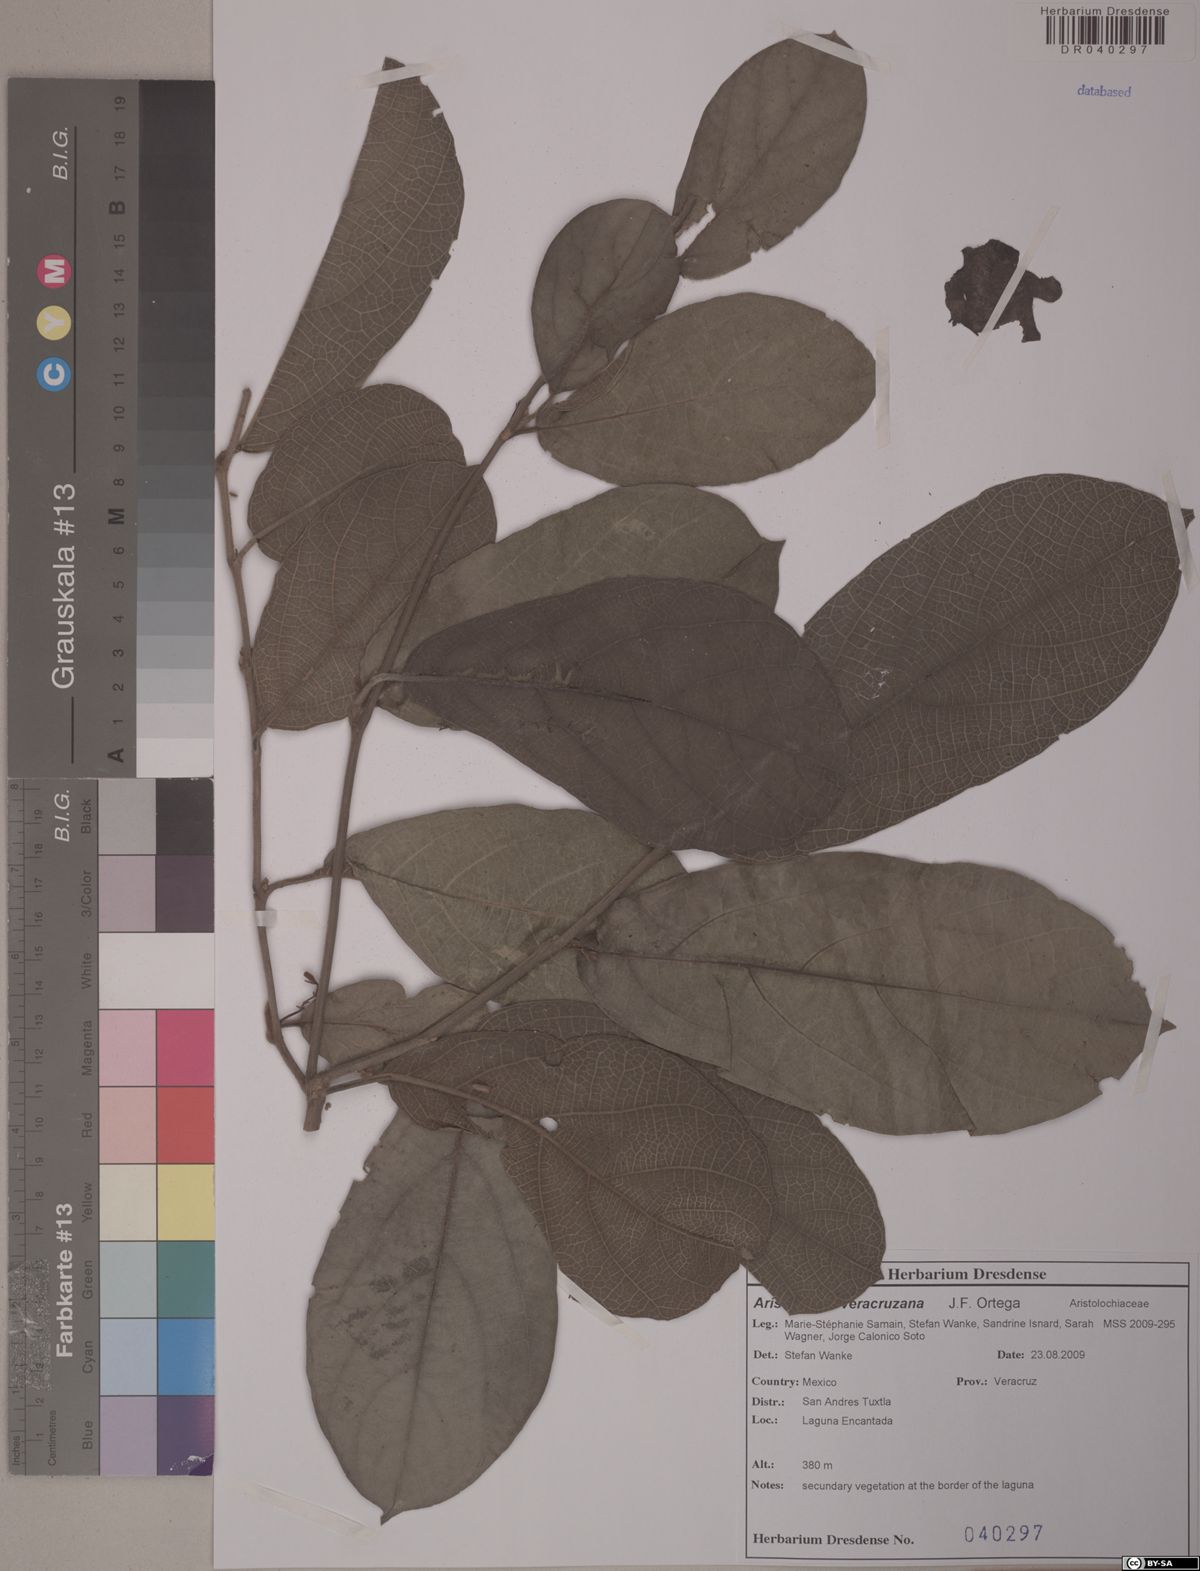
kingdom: Plantae
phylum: Tracheophyta
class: Magnoliopsida
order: Piperales
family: Aristolochiaceae
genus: Isotrema
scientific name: Isotrema veracruzanum
